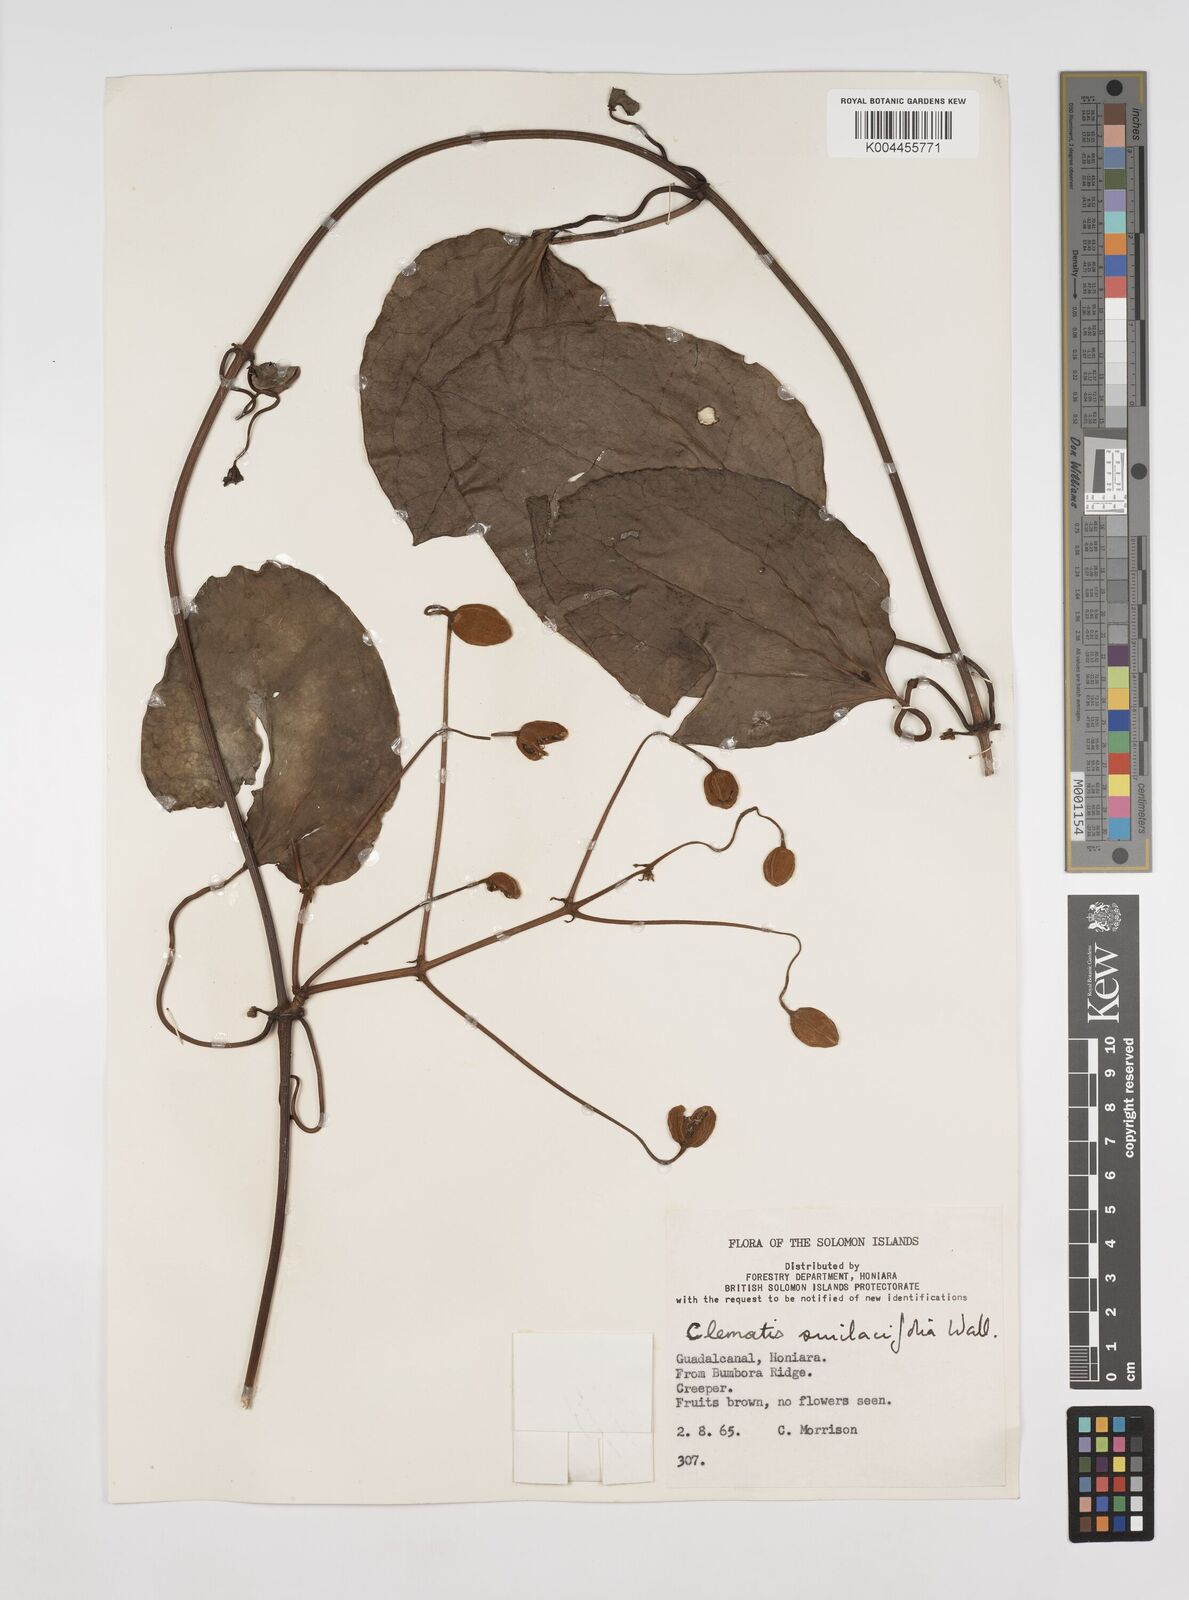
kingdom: Plantae
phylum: Tracheophyta
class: Magnoliopsida
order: Ranunculales
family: Ranunculaceae
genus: Clematis
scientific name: Clematis smilacifolia
